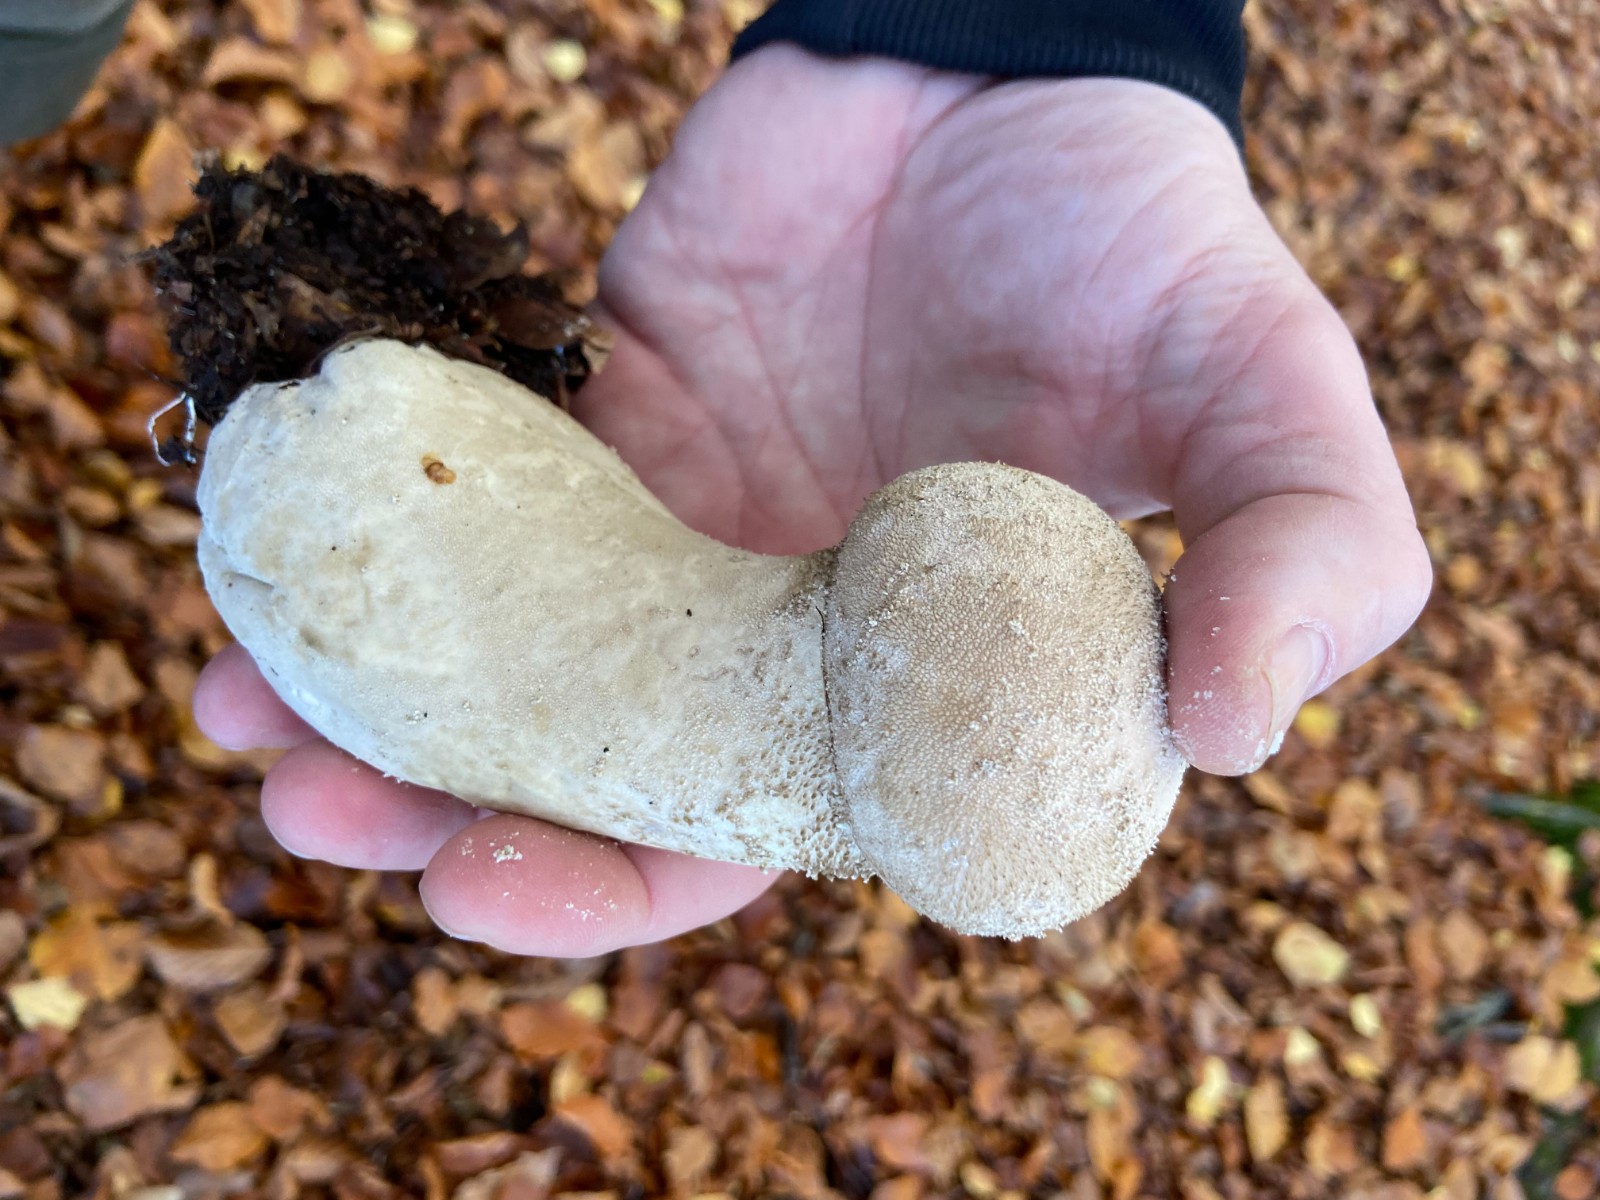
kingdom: Fungi
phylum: Basidiomycota
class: Agaricomycetes
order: Agaricales
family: Lycoperdaceae
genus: Lycoperdon
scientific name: Lycoperdon excipuliforme
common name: højstokket støvbold
